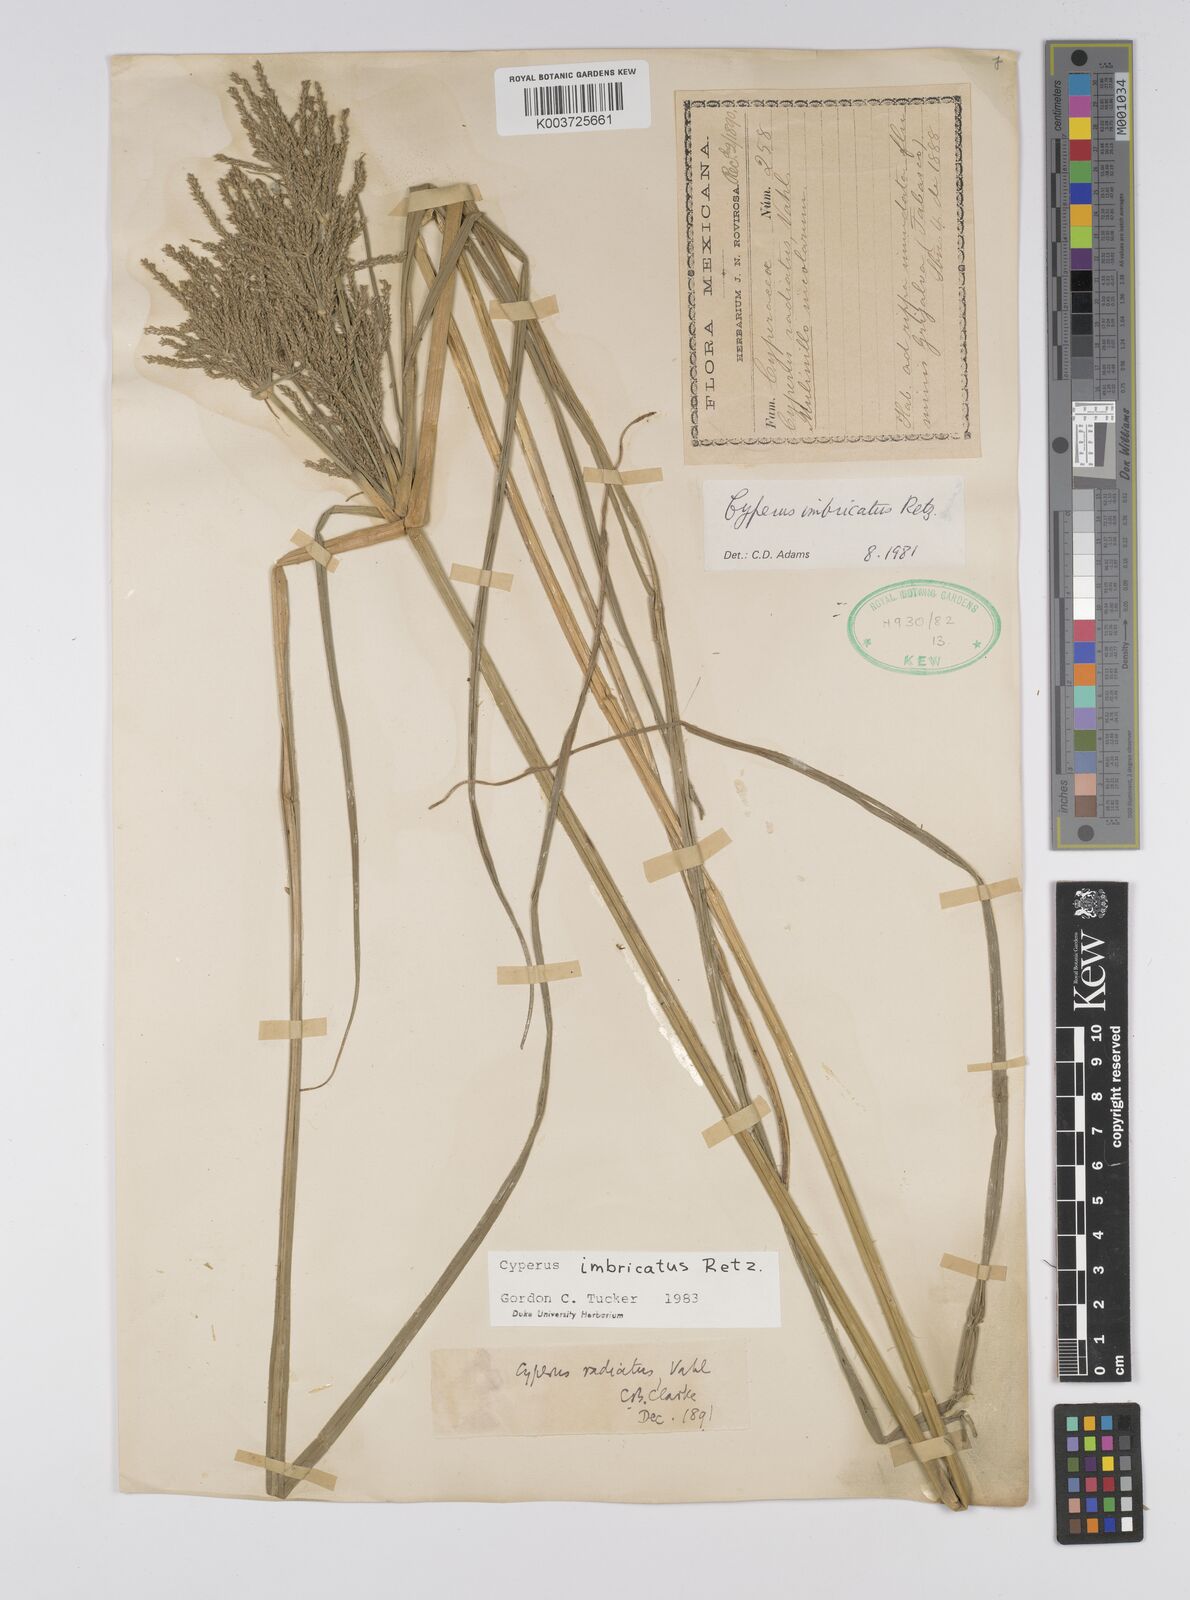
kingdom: Plantae
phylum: Tracheophyta
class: Liliopsida
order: Poales
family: Cyperaceae
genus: Cyperus
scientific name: Cyperus imbricatus
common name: Shingle flatsedge
